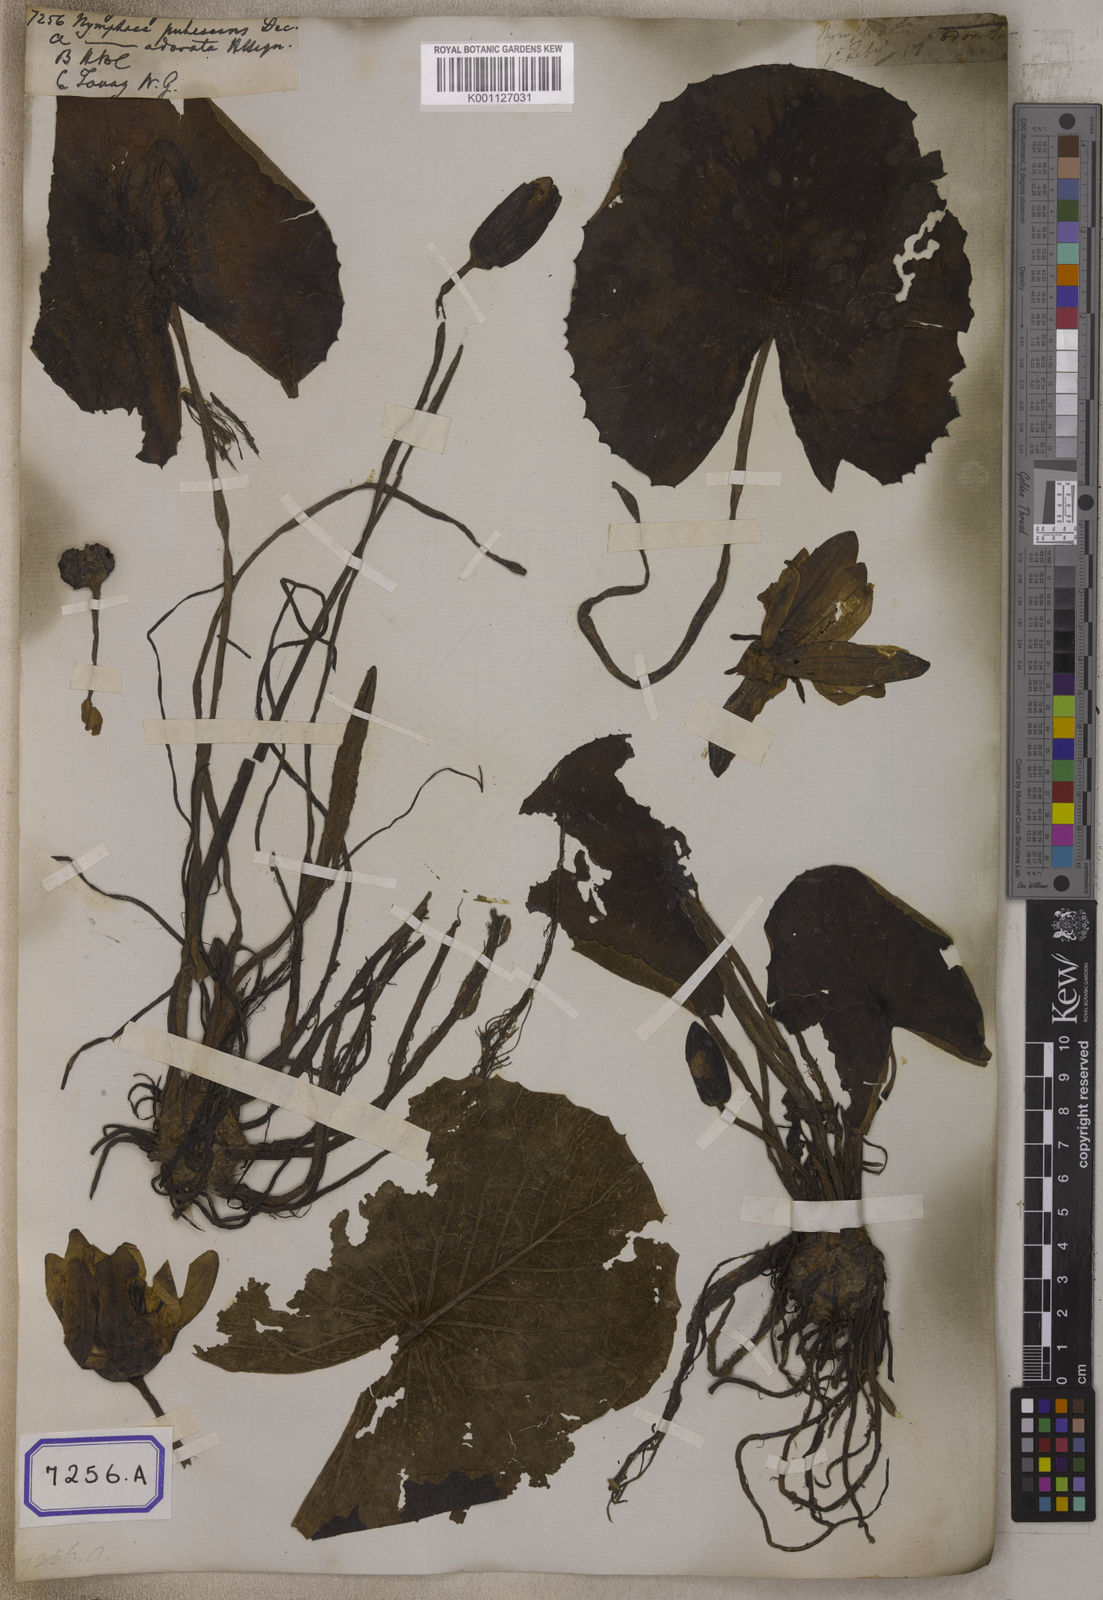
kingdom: Plantae
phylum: Tracheophyta
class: Magnoliopsida
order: Nymphaeales
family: Nymphaeaceae
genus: Nymphaea
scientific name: Nymphaea pubescens
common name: Hairy water lily
